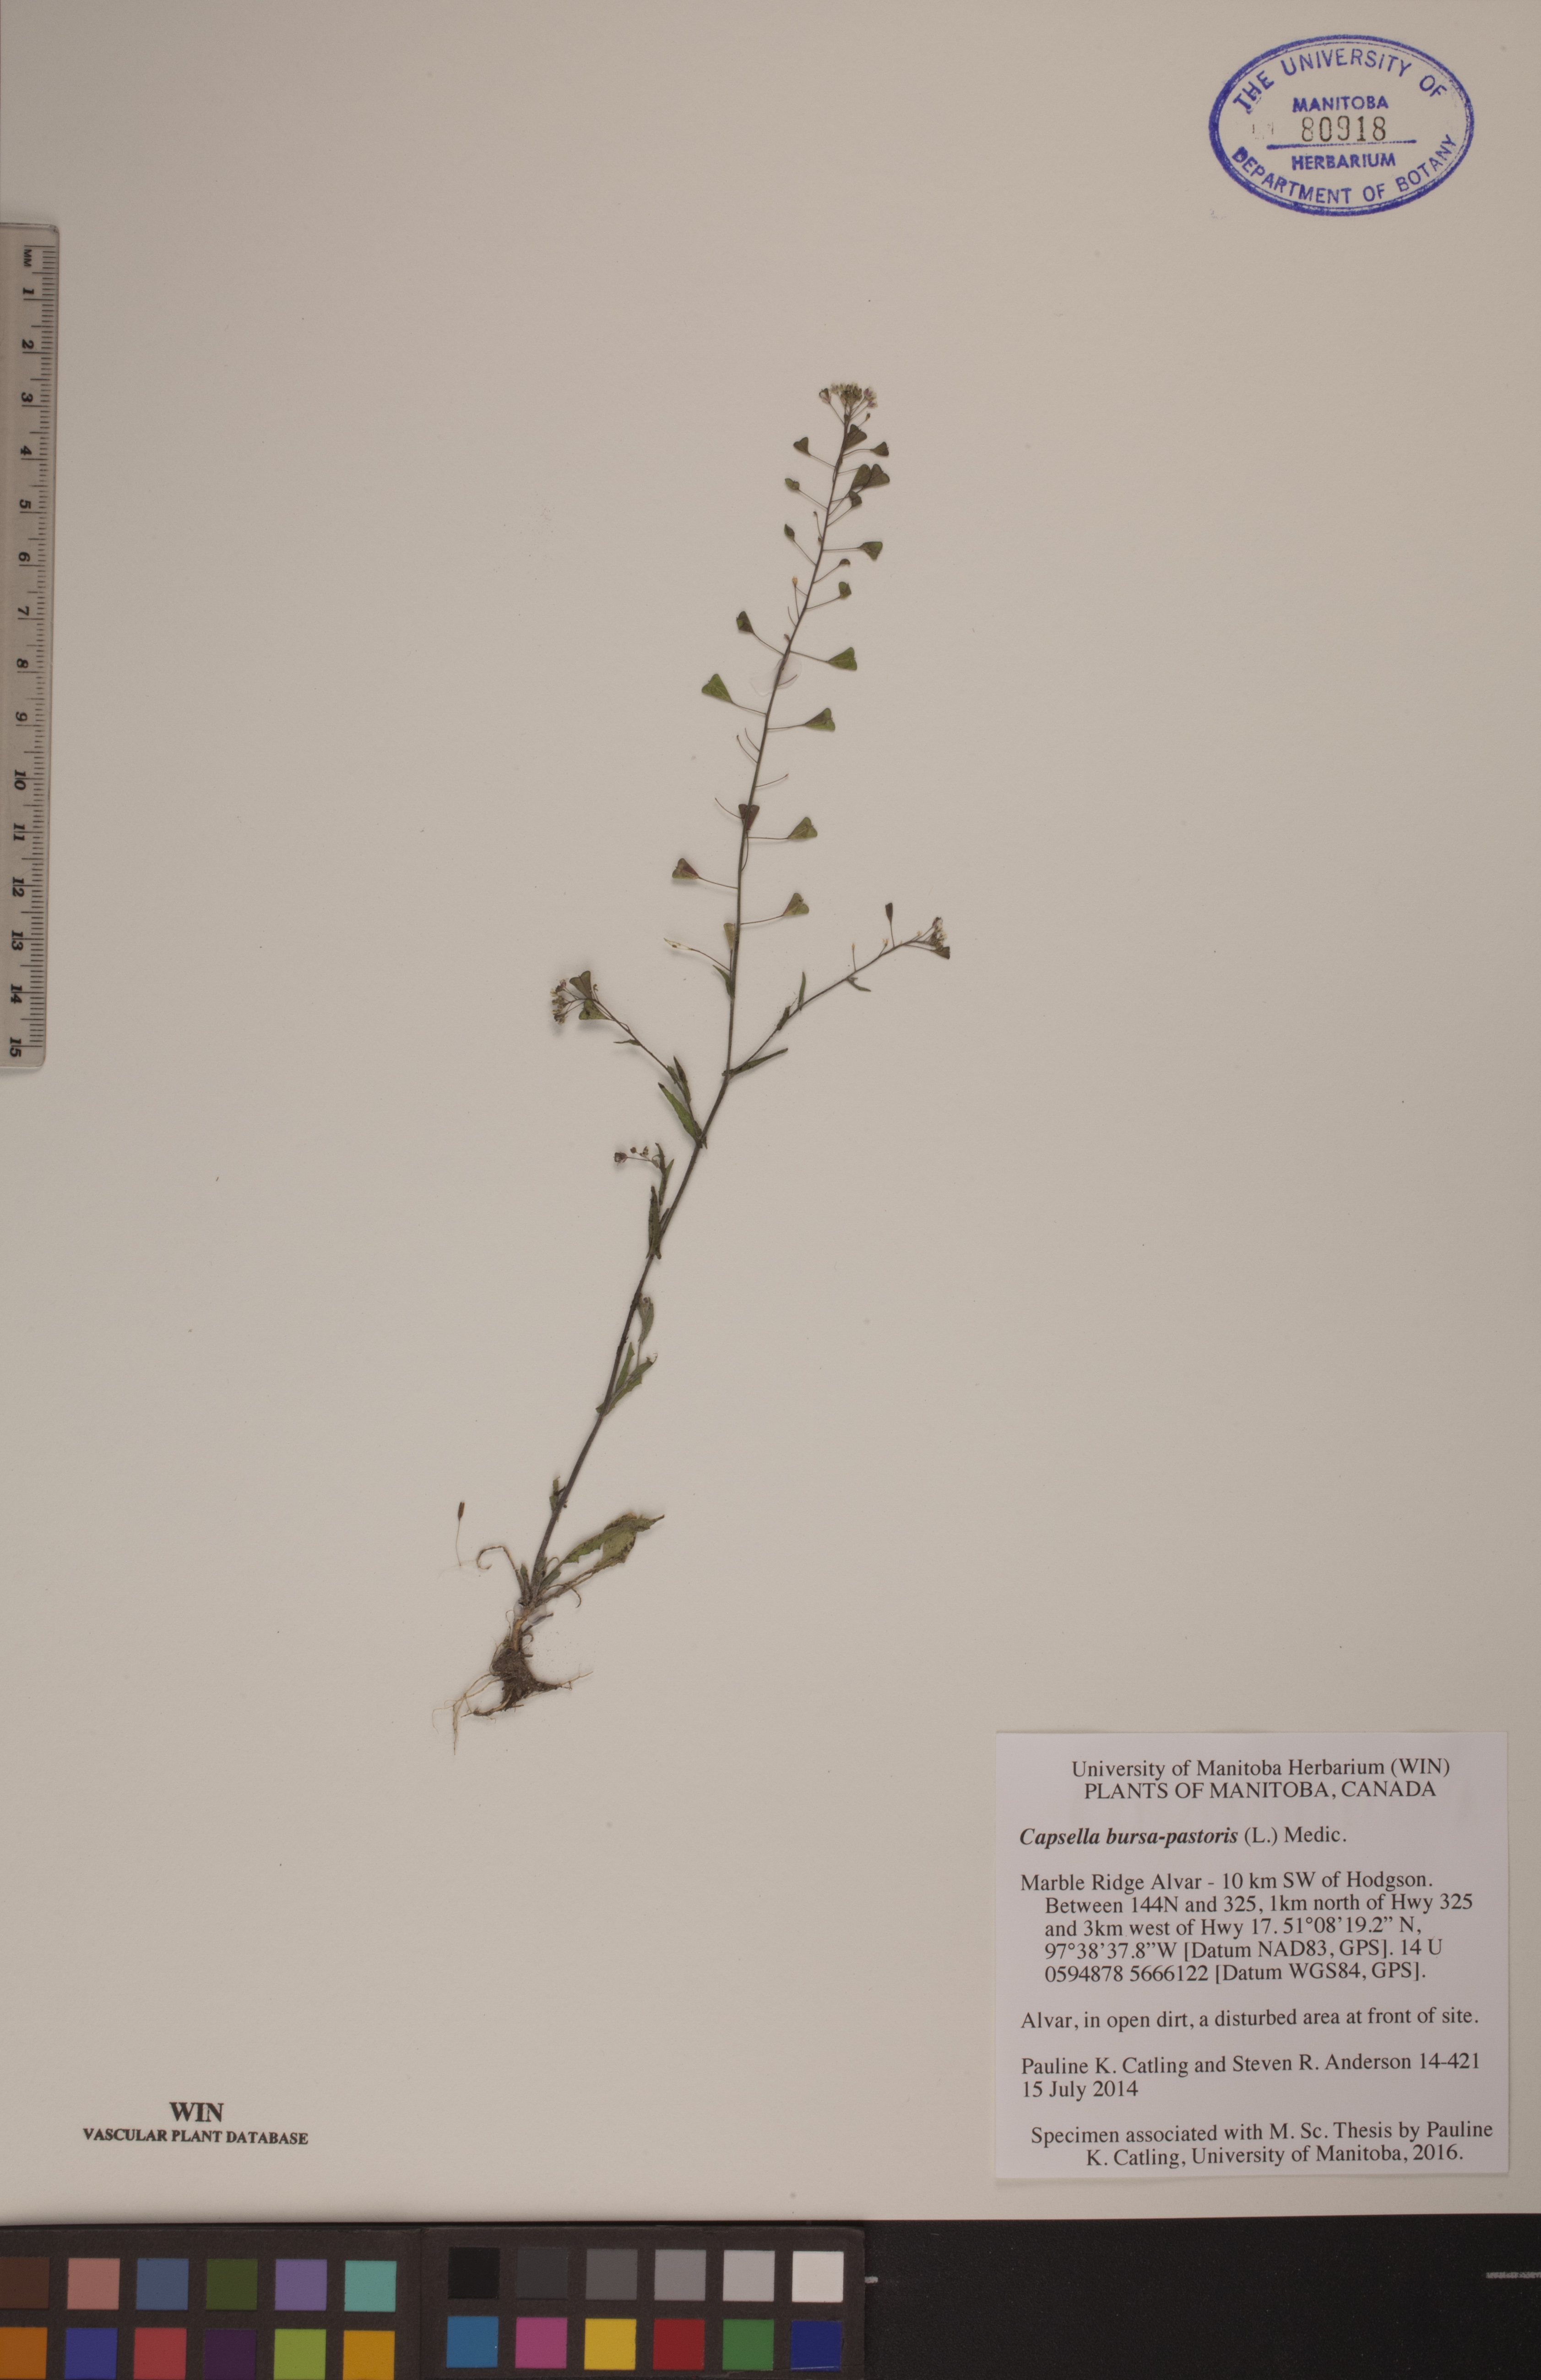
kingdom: Plantae
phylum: Tracheophyta
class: Magnoliopsida
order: Brassicales
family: Brassicaceae
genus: Capsella
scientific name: Capsella bursa-pastoris
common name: Shepherd's purse
